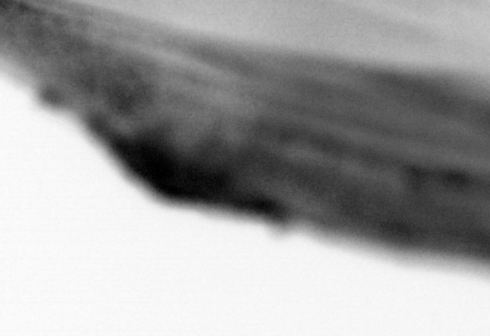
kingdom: Animalia
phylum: Chordata
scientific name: Chordata
